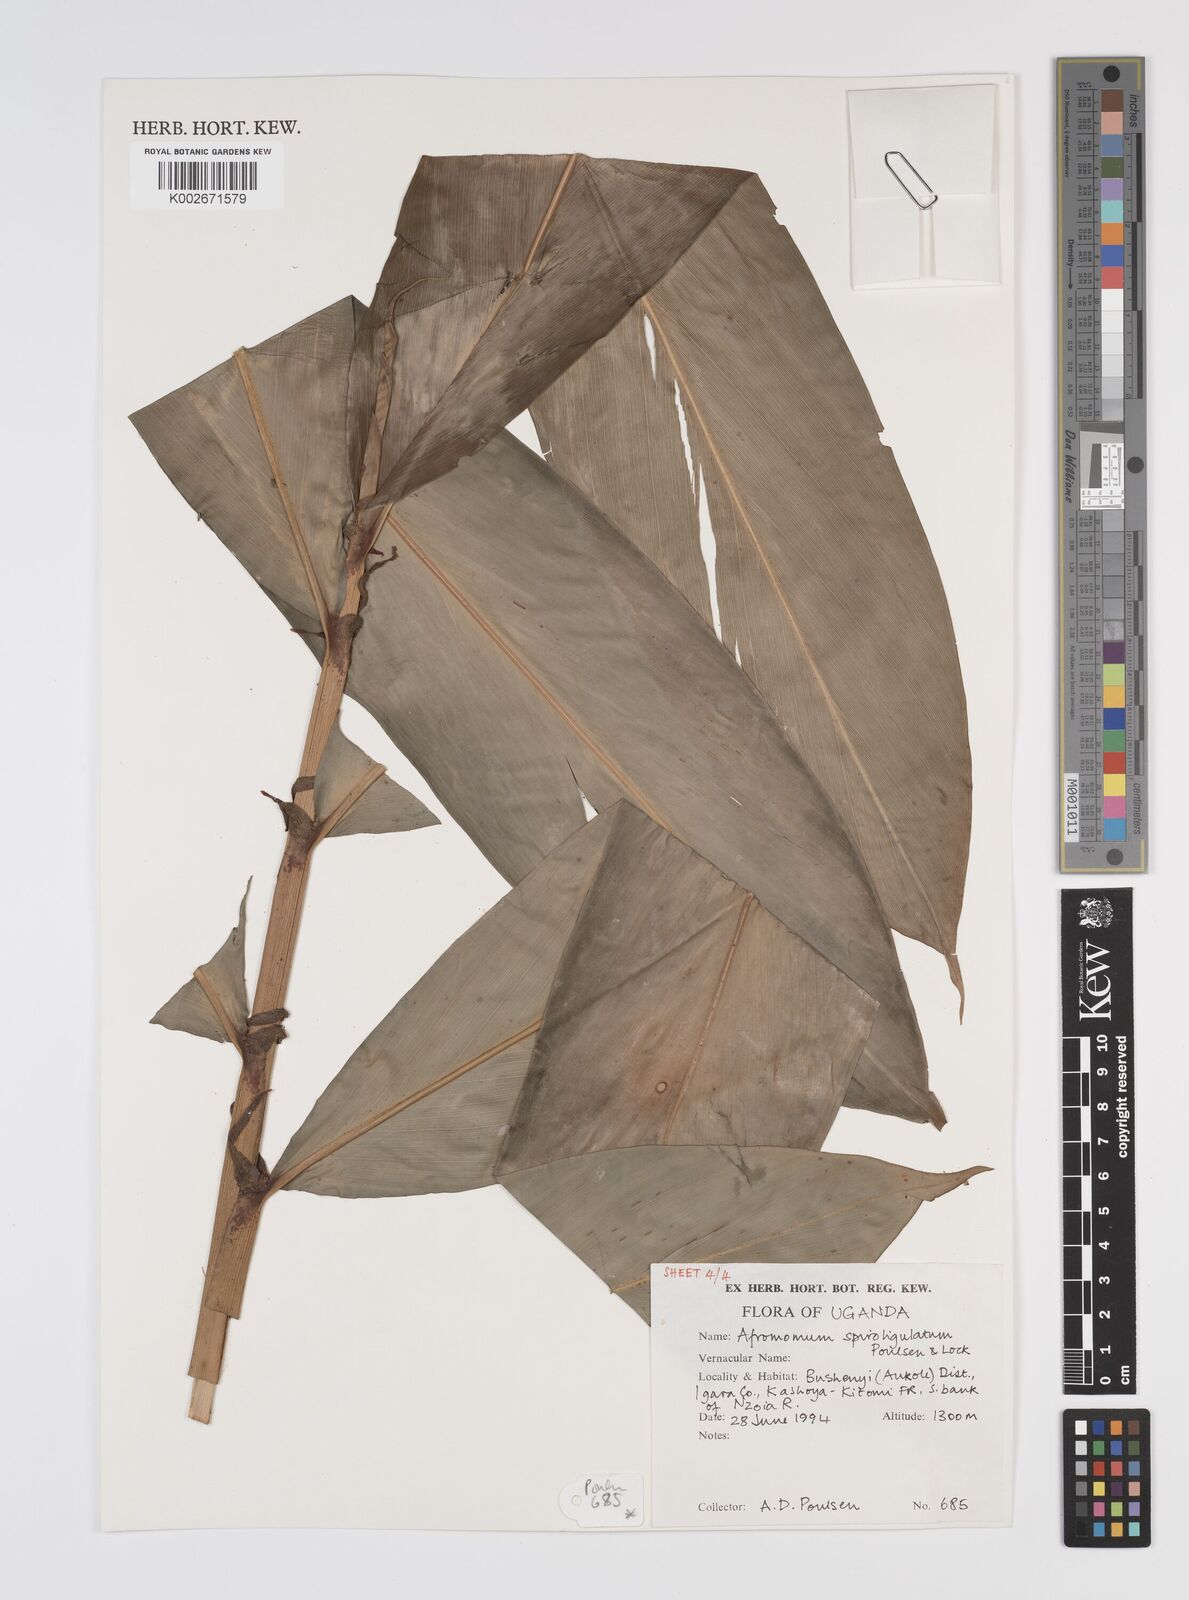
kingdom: Plantae
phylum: Tracheophyta
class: Liliopsida
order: Zingiberales
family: Zingiberaceae
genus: Aframomum
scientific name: Aframomum spiroligulatum
